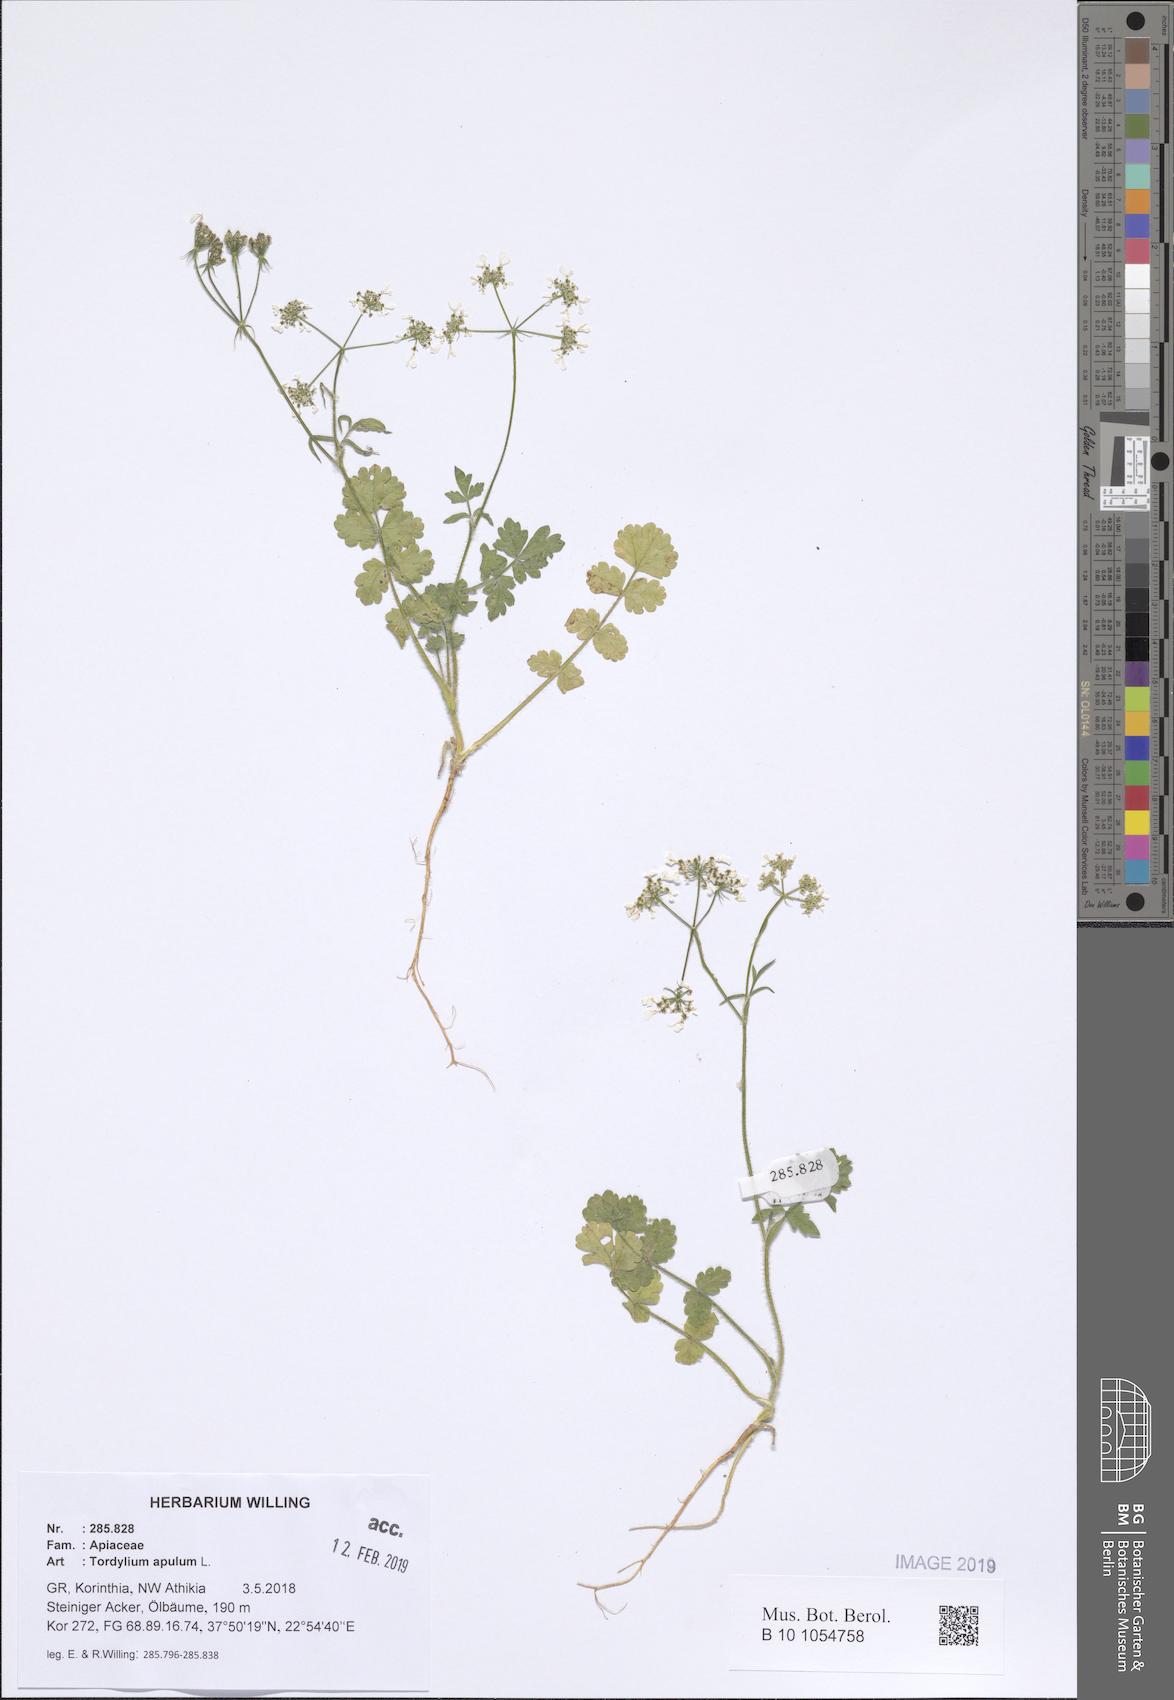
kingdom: Plantae
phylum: Tracheophyta
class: Magnoliopsida
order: Apiales
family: Apiaceae
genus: Tordylium
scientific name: Tordylium apulum
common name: Mediterranean hartwort
